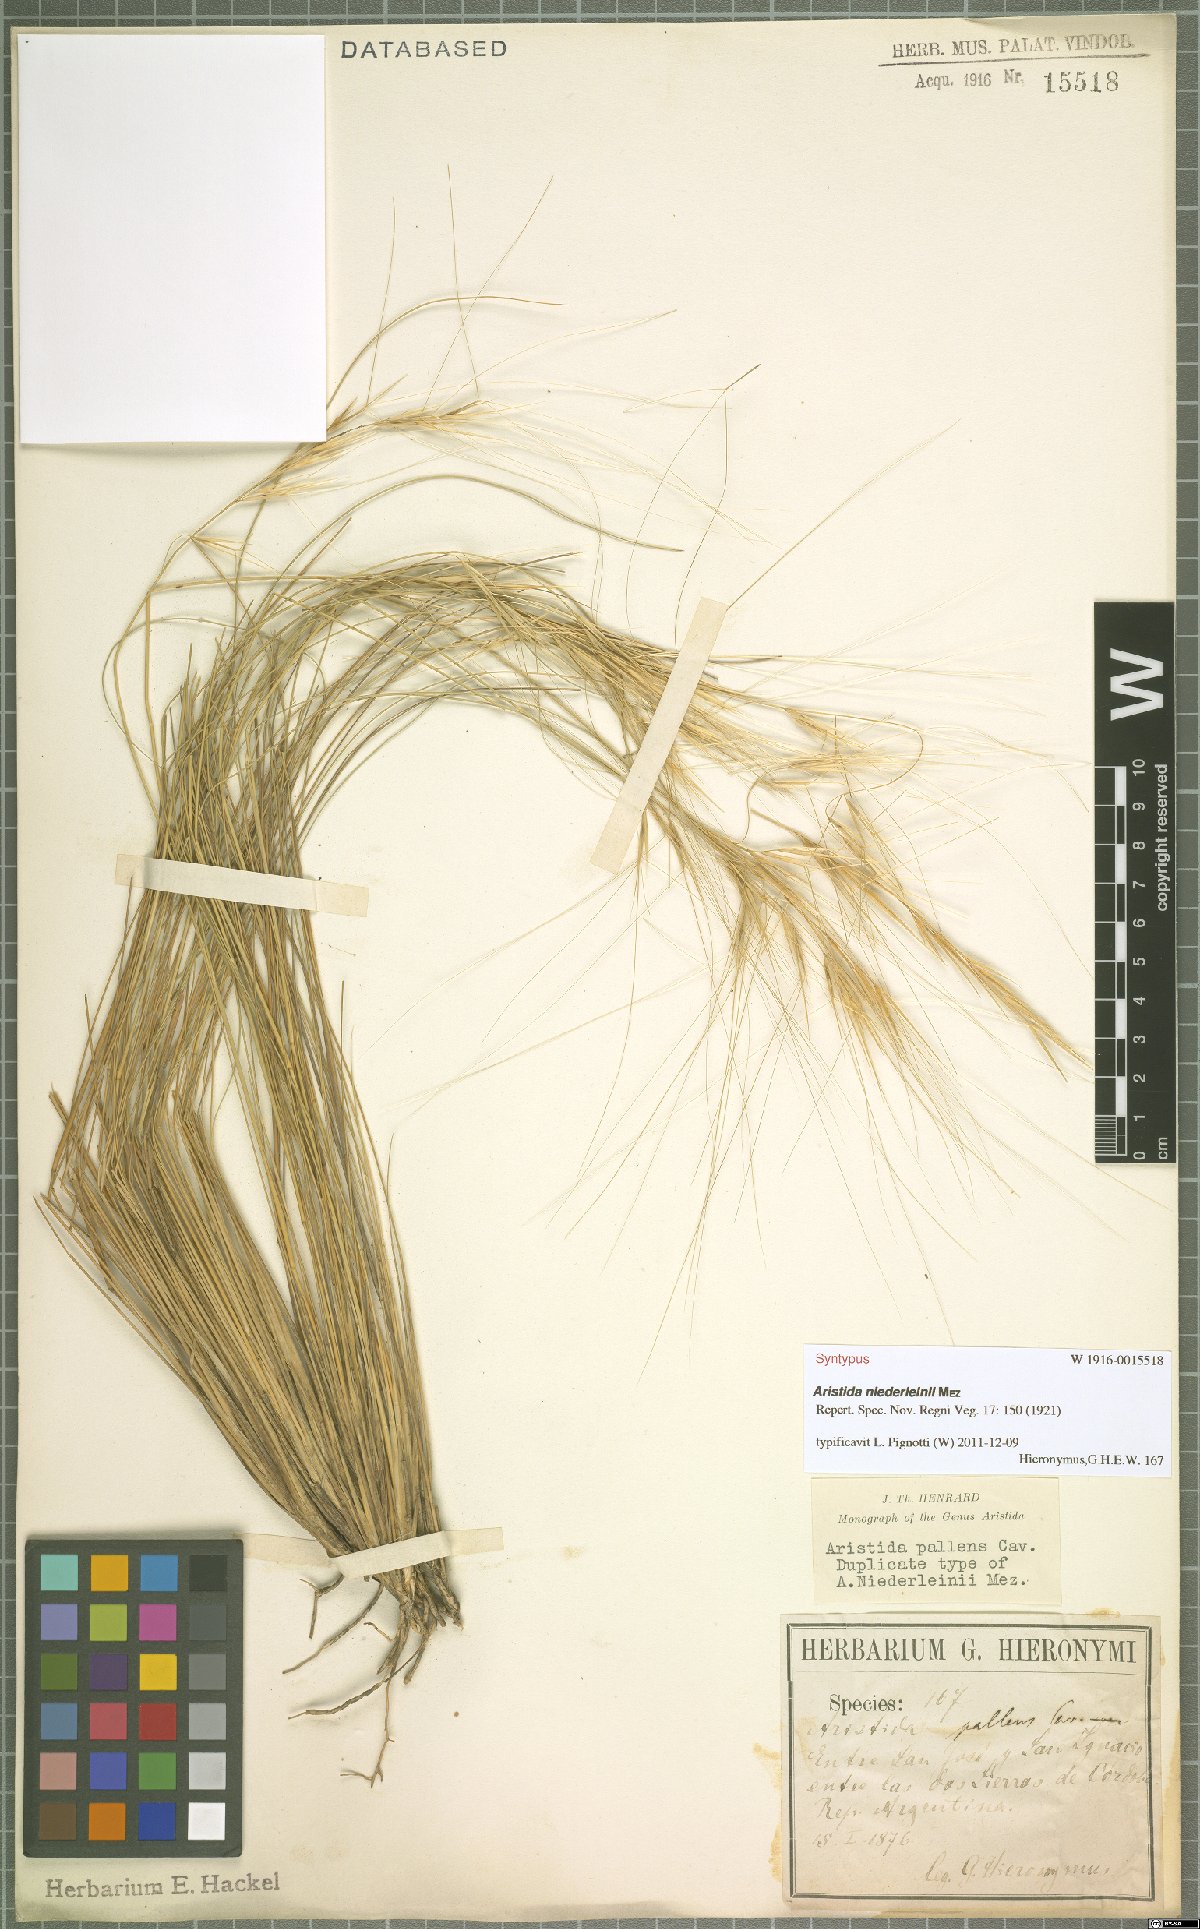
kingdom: Plantae
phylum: Tracheophyta
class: Liliopsida
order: Poales
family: Poaceae
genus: Aristida
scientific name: Aristida niederleinii
